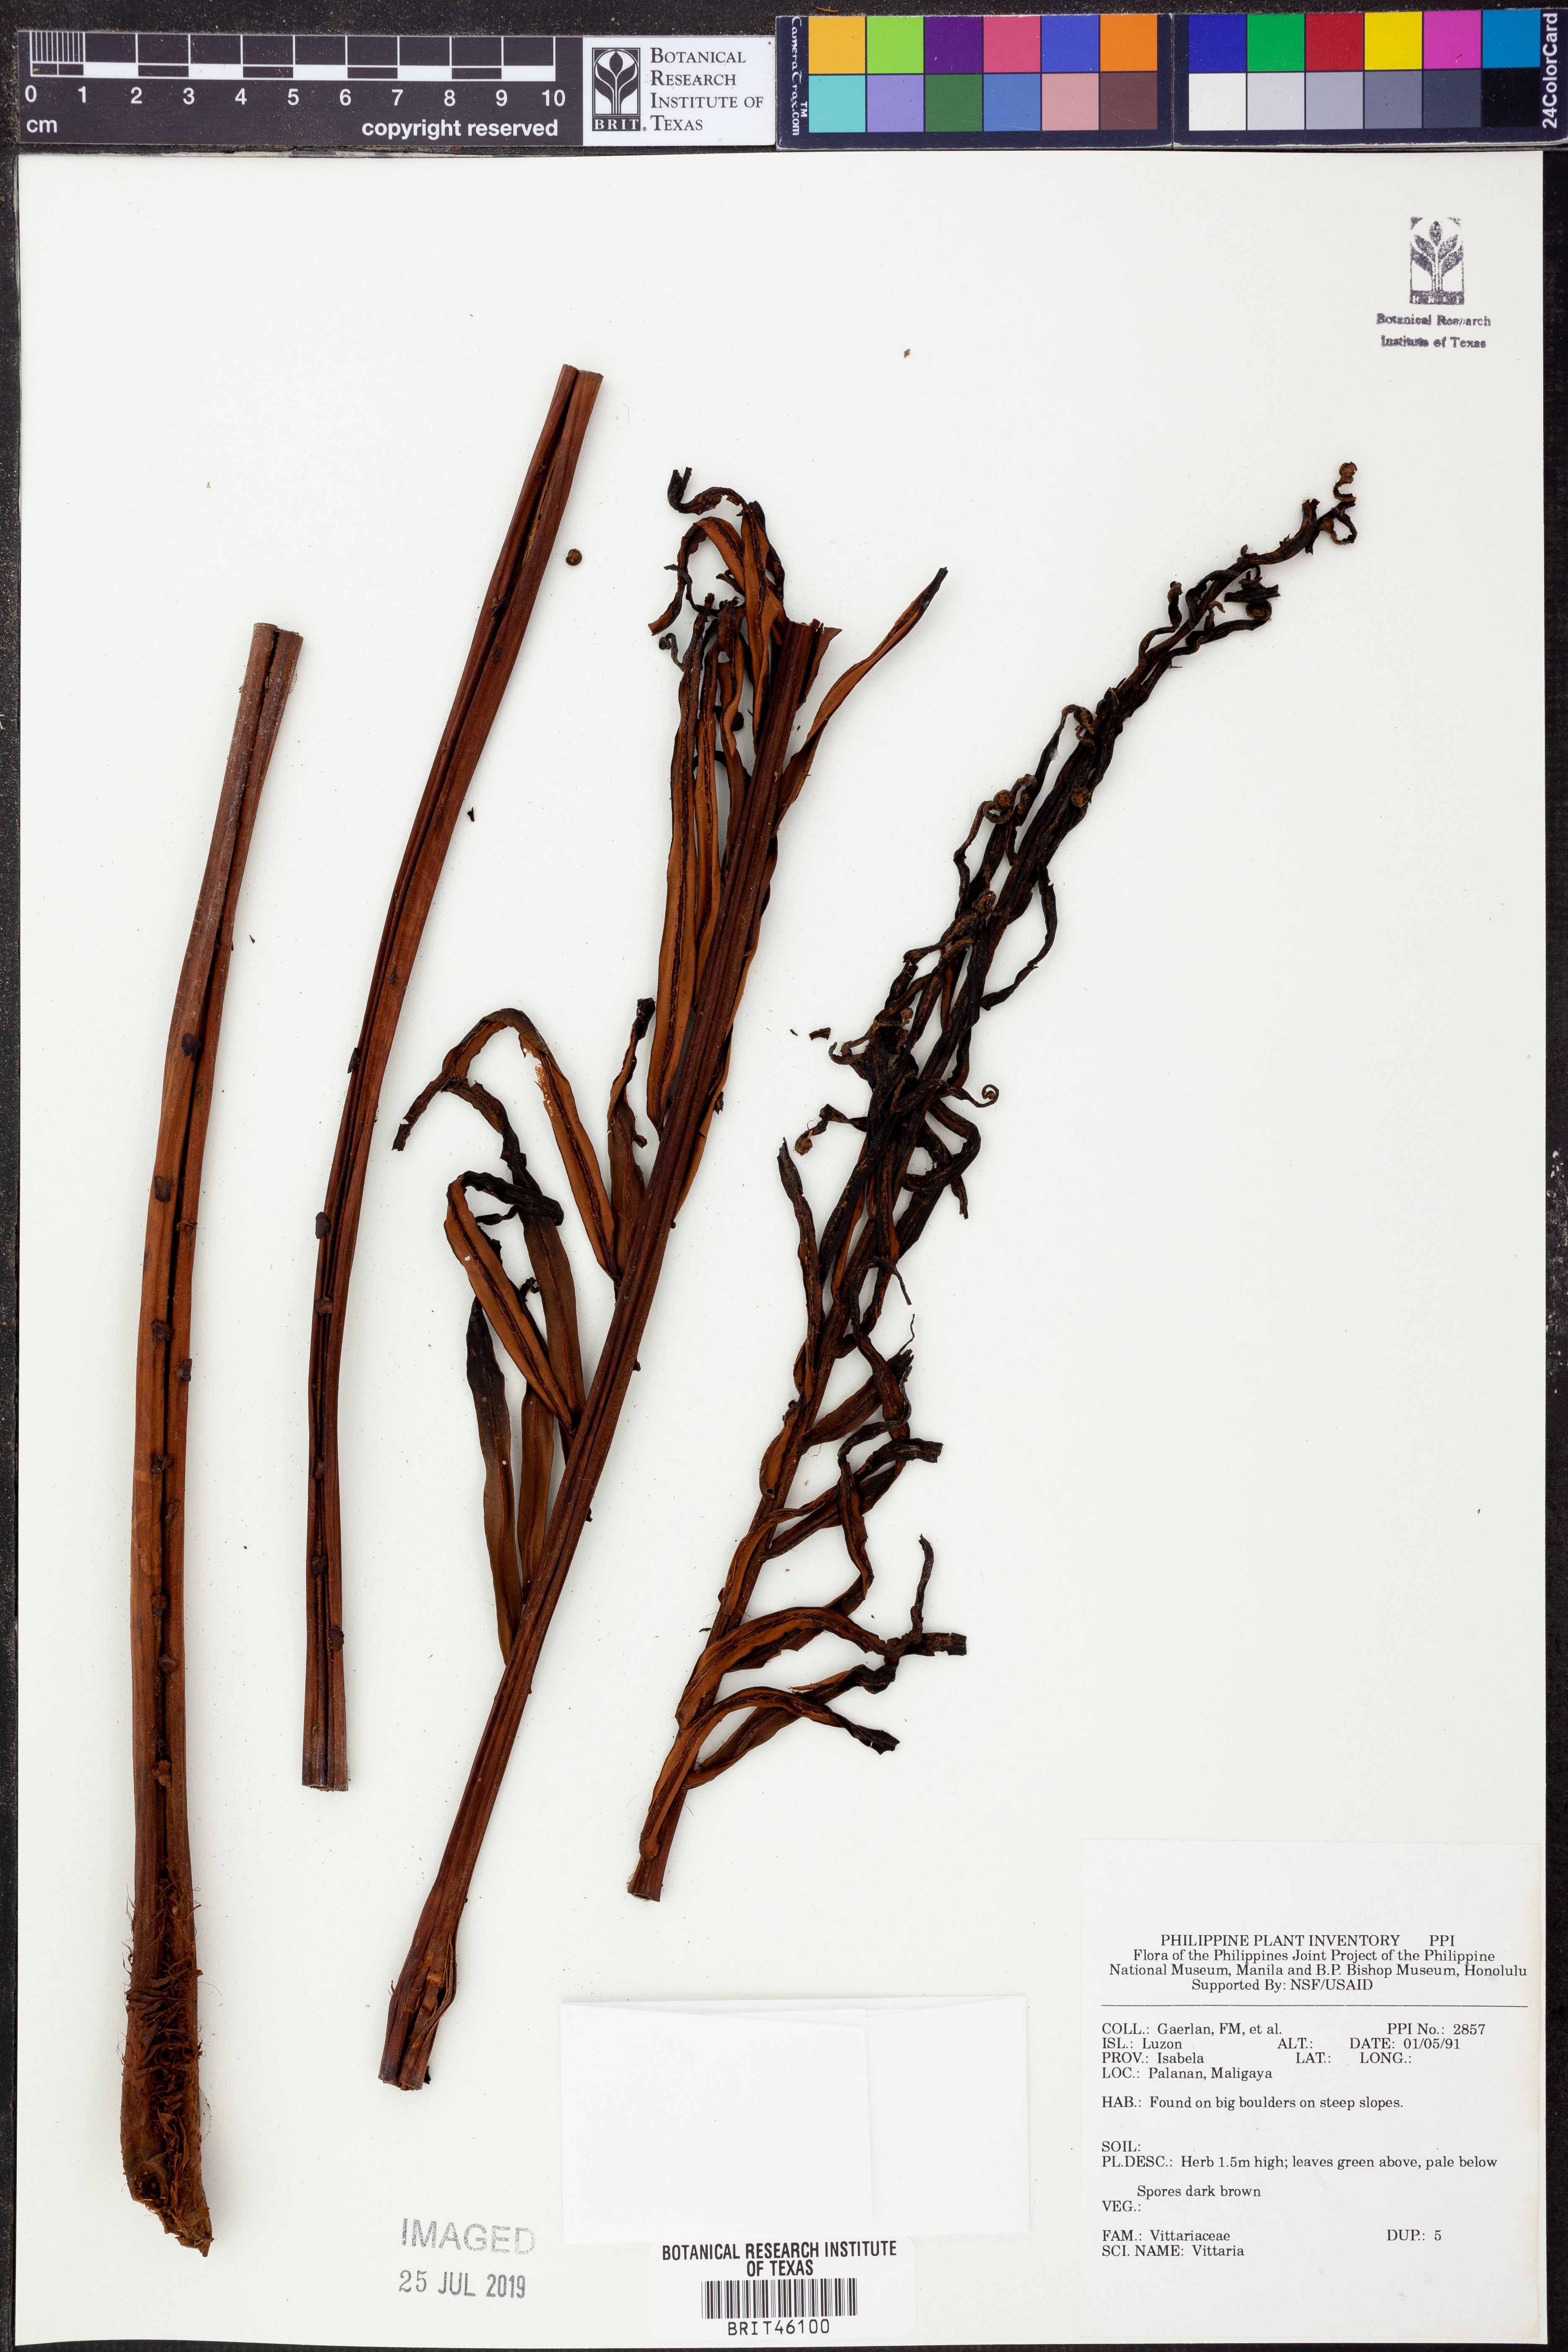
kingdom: Plantae
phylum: Tracheophyta
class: Polypodiopsida
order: Polypodiales
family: Pteridaceae
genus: Vittaria
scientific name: Vittaria
